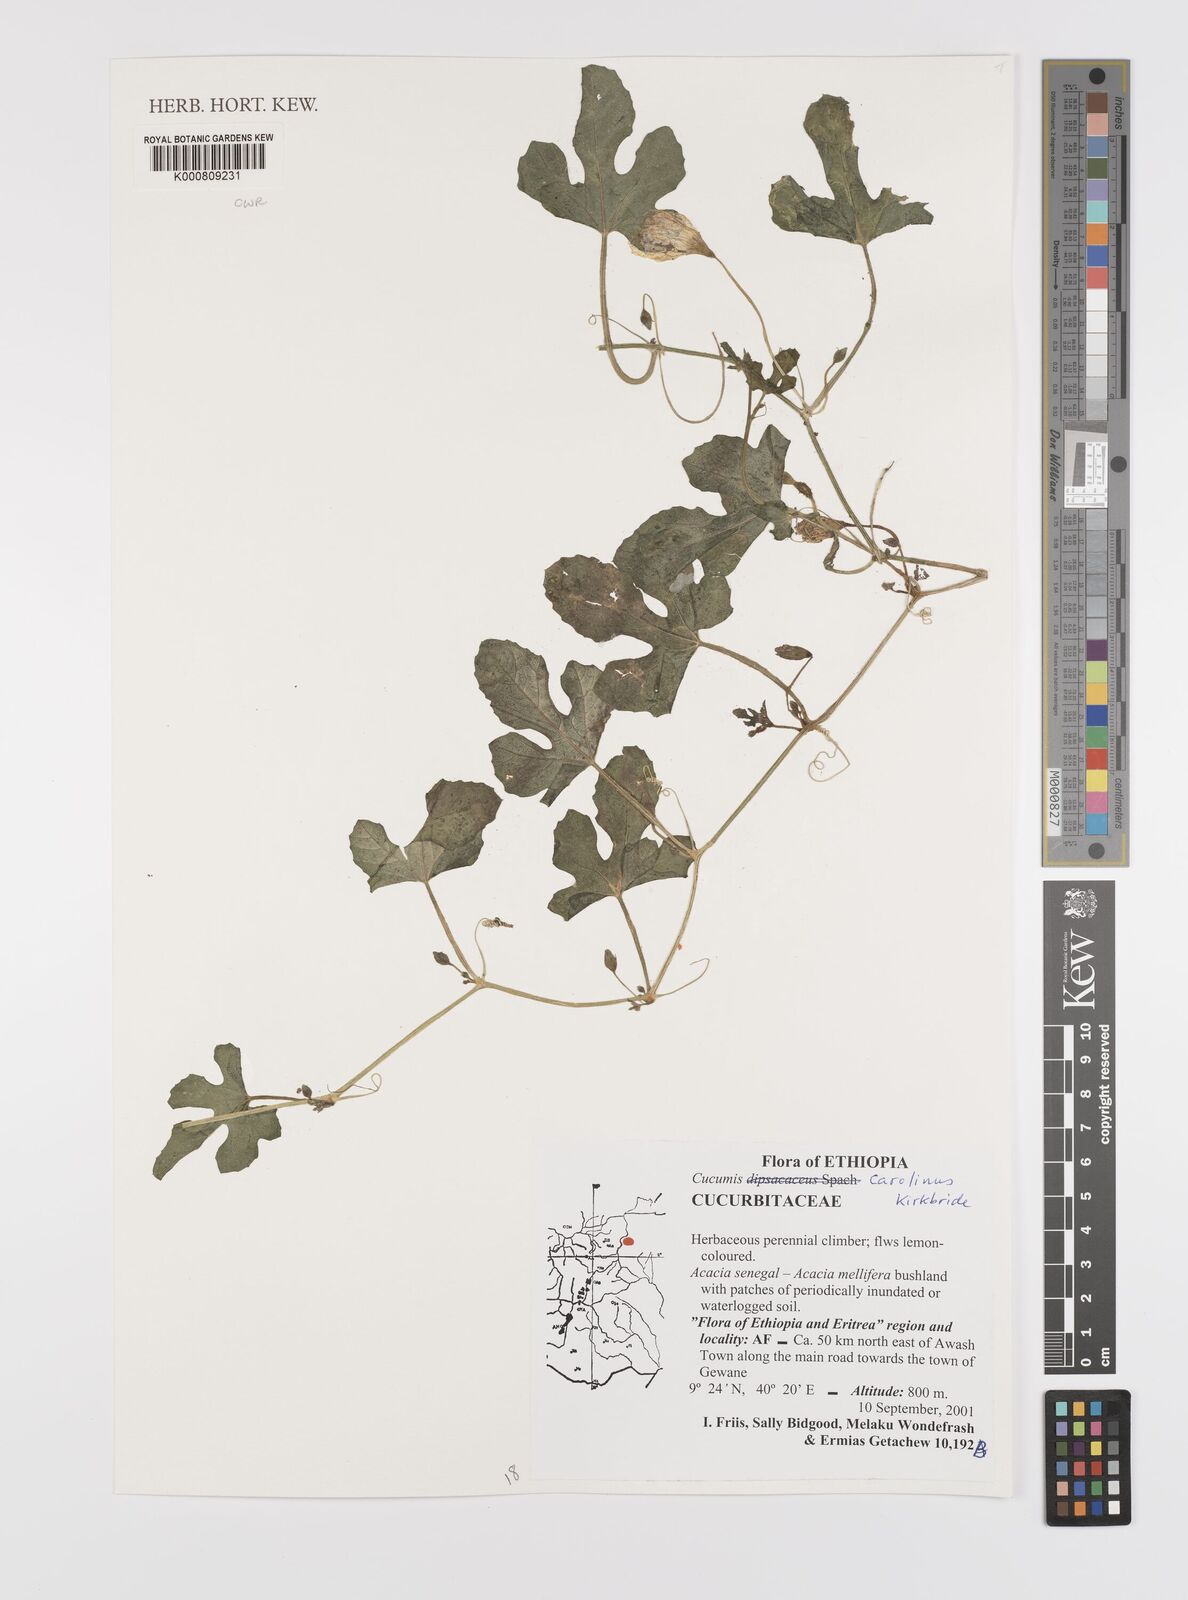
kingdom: Plantae
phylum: Tracheophyta
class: Magnoliopsida
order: Cucurbitales
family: Cucurbitaceae
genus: Cucumis
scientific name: Cucumis carolinus
